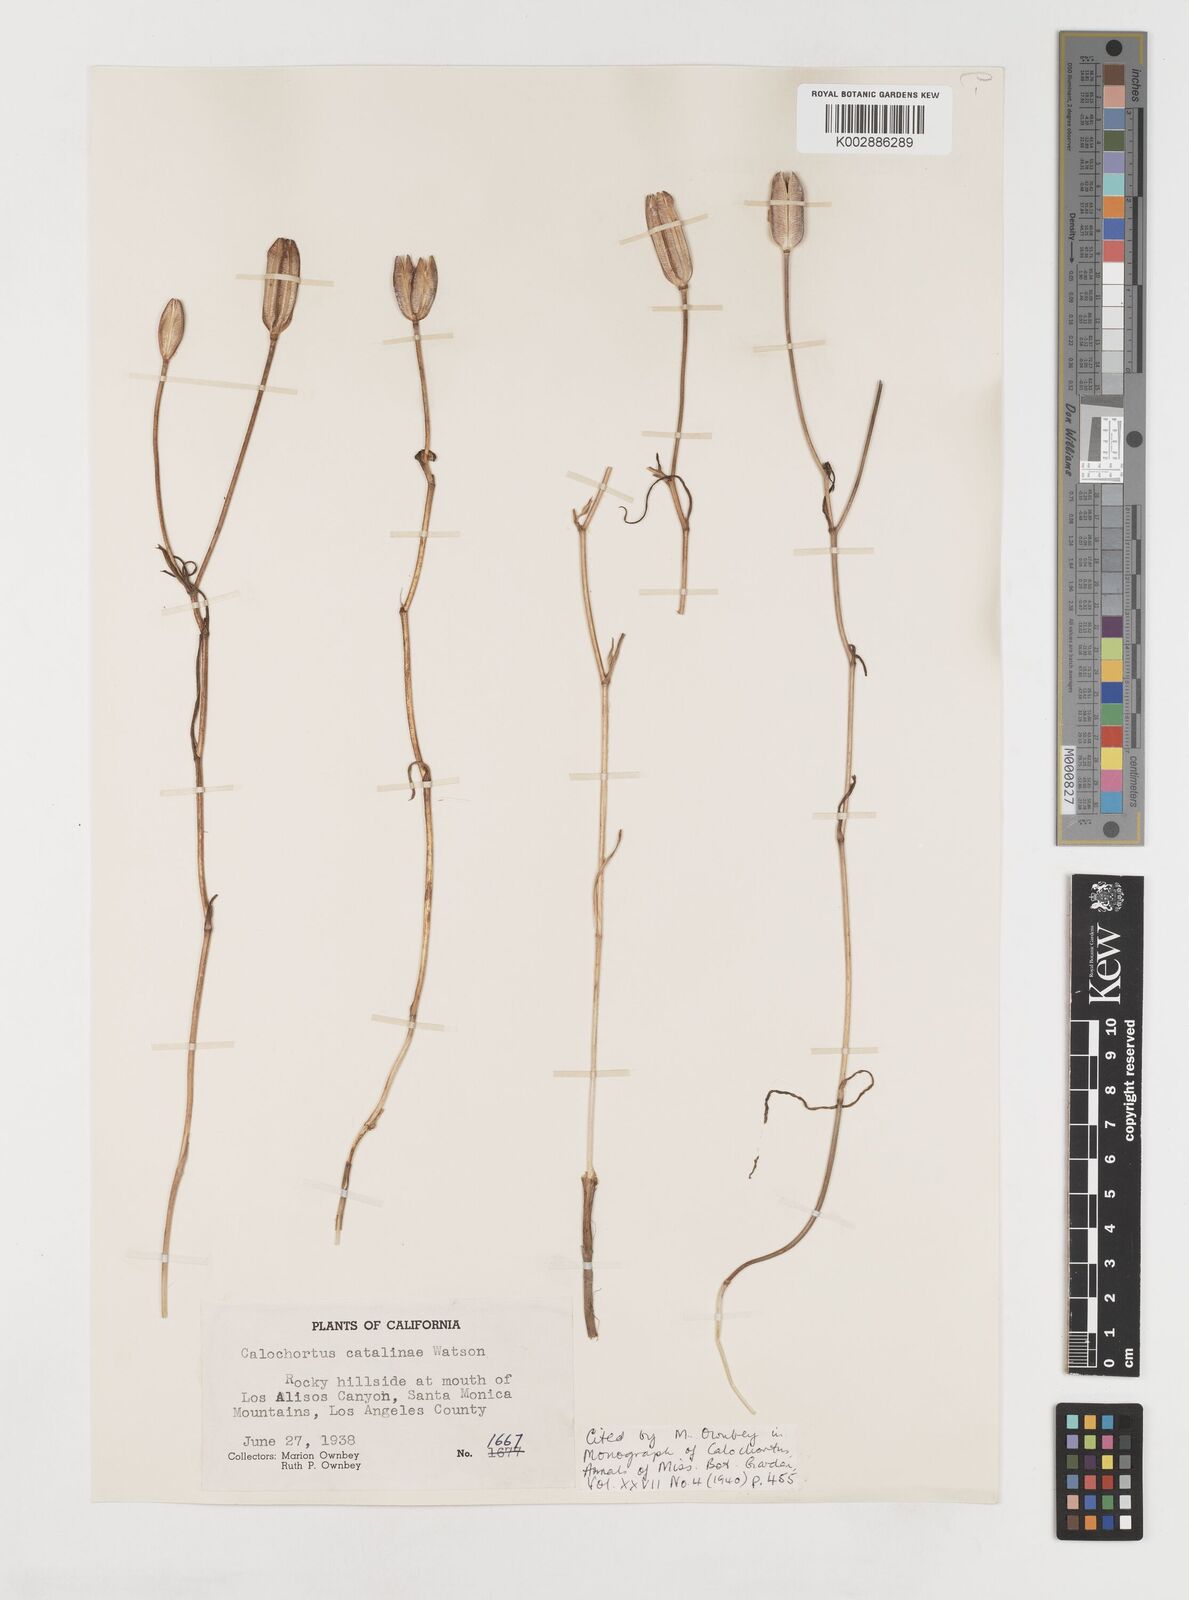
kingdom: Plantae
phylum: Tracheophyta
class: Liliopsida
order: Liliales
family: Liliaceae
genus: Calochortus
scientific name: Calochortus catalinae
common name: Catalina mariposa-lily
